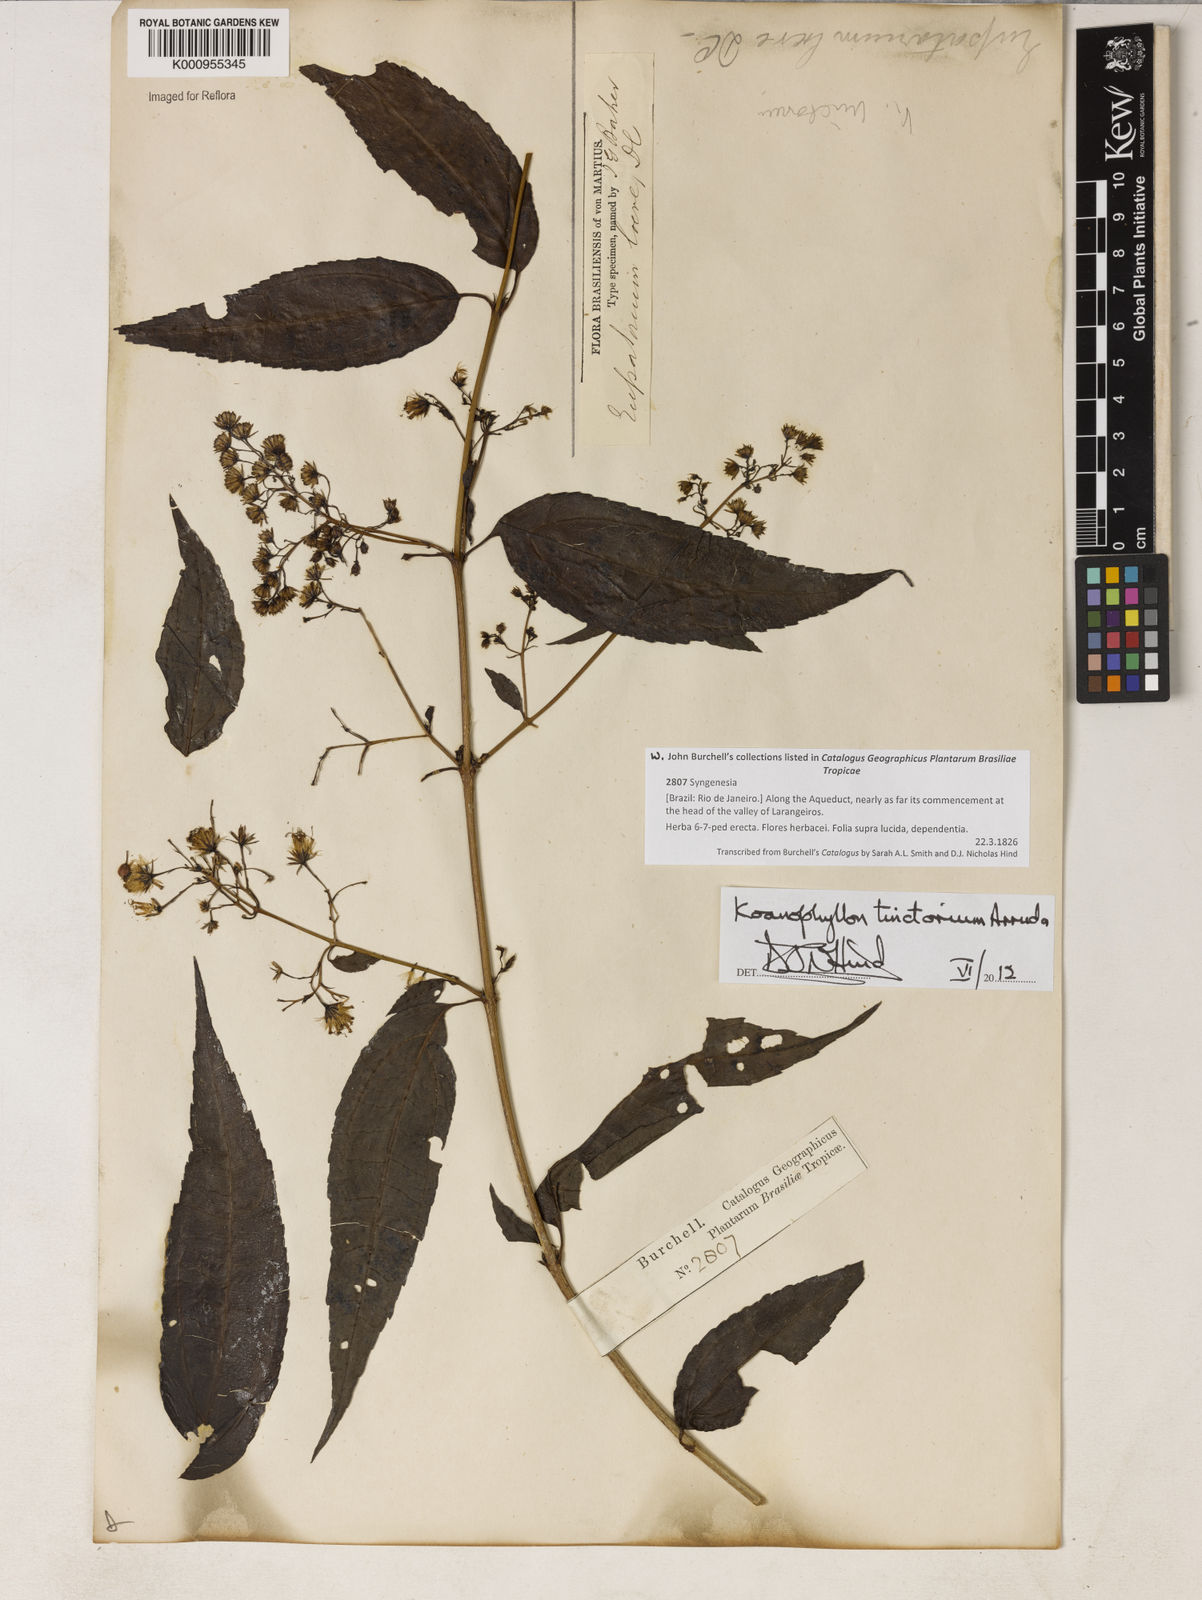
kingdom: Plantae
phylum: Tracheophyta
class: Magnoliopsida
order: Asterales
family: Asteraceae
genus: Koanophyllon
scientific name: Koanophyllon
